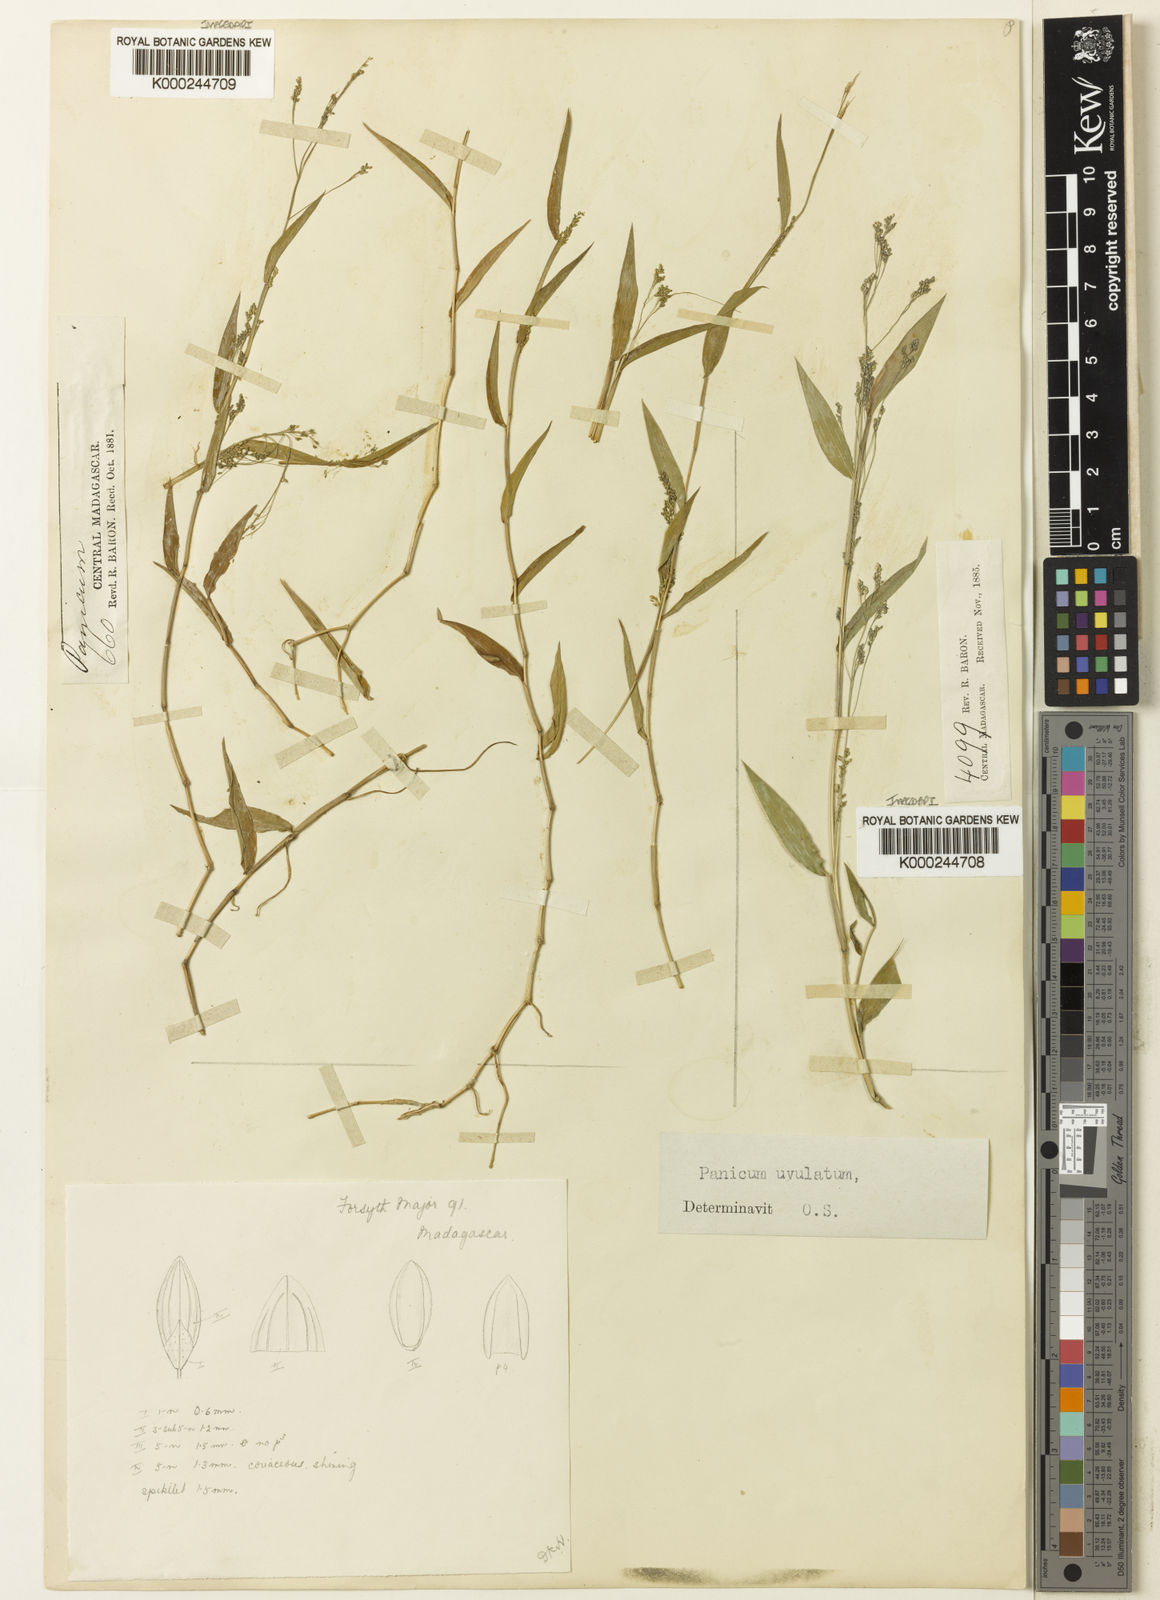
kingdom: Plantae
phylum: Tracheophyta
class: Liliopsida
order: Poales
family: Poaceae
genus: Panicum
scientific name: Panicum mitopus
